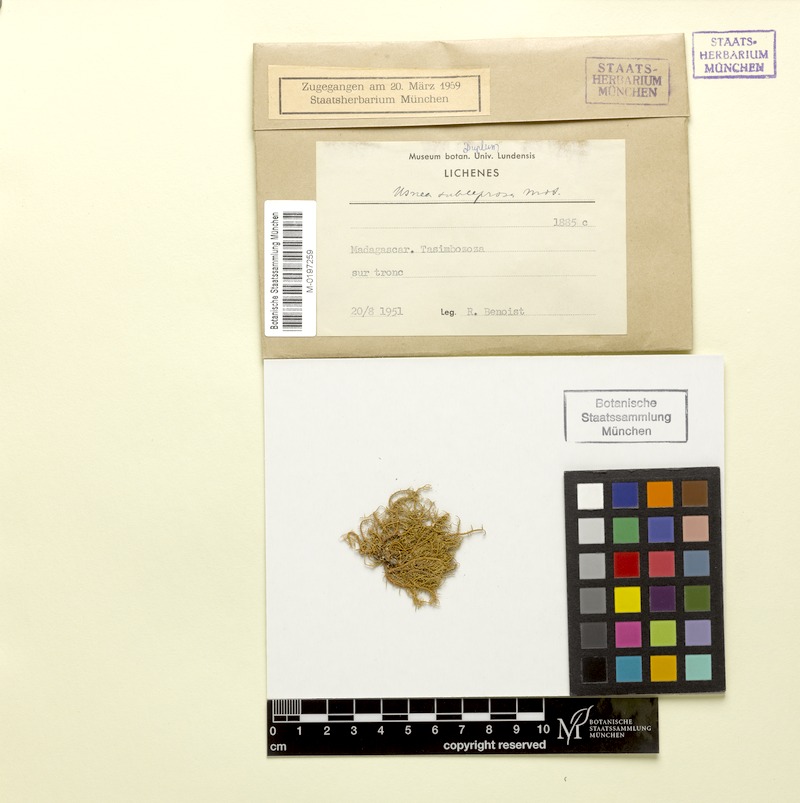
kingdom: Fungi
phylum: Ascomycota
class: Lecanoromycetes
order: Lecanorales
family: Parmeliaceae
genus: Usnea
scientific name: Usnea subleprosa
